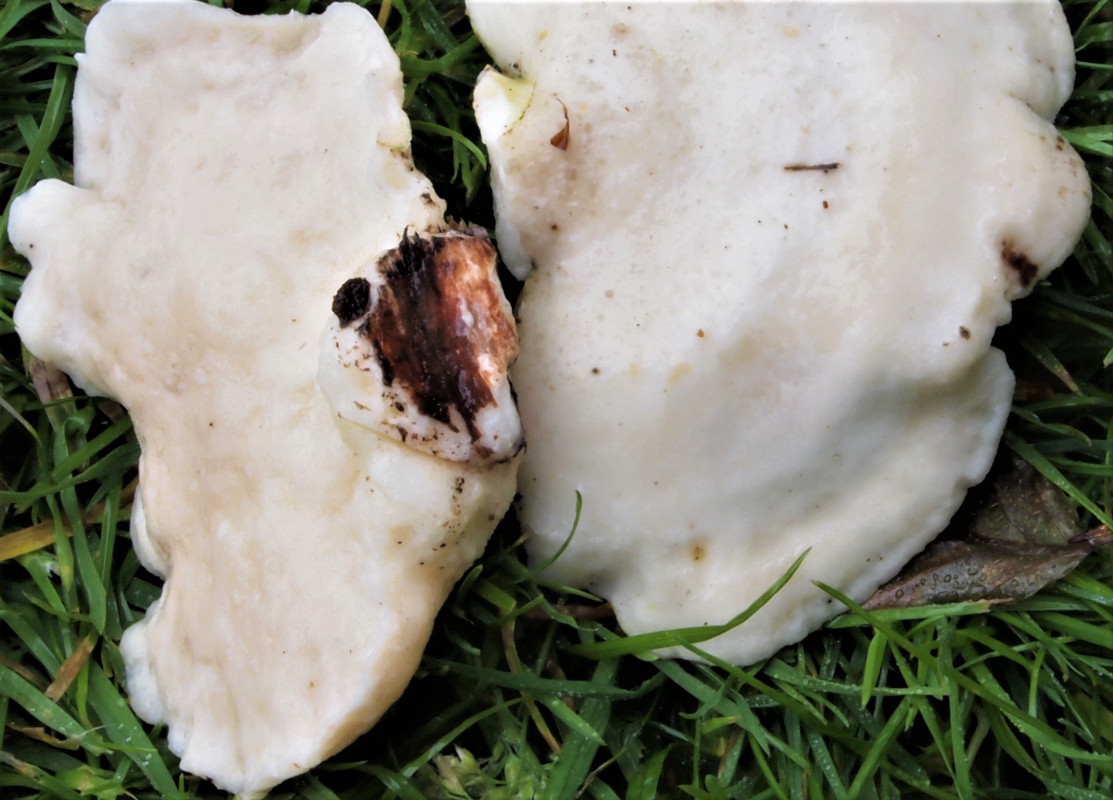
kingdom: Fungi
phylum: Basidiomycota
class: Agaricomycetes
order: Polyporales
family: Incrustoporiaceae
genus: Tyromyces
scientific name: Tyromyces chioneus
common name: stor blødporesvamp
